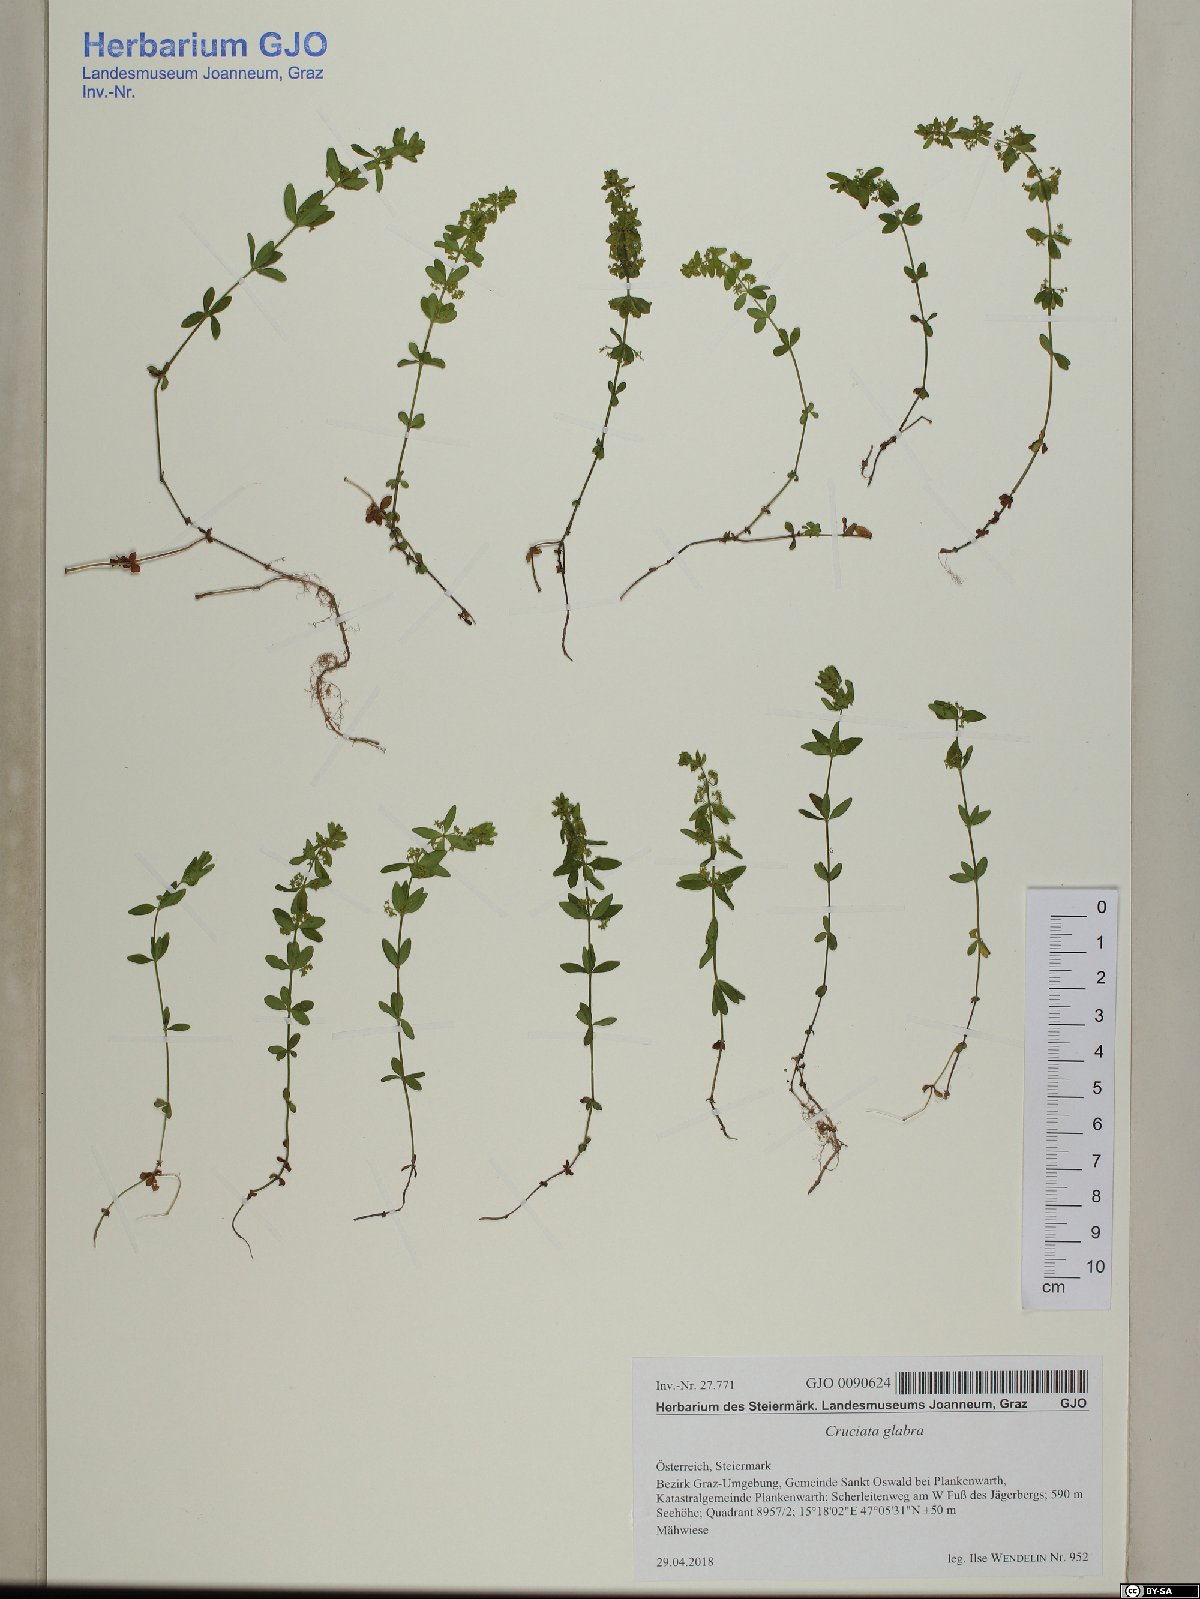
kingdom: Plantae
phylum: Tracheophyta
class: Magnoliopsida
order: Gentianales
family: Rubiaceae
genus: Cruciata
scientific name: Cruciata glabra
